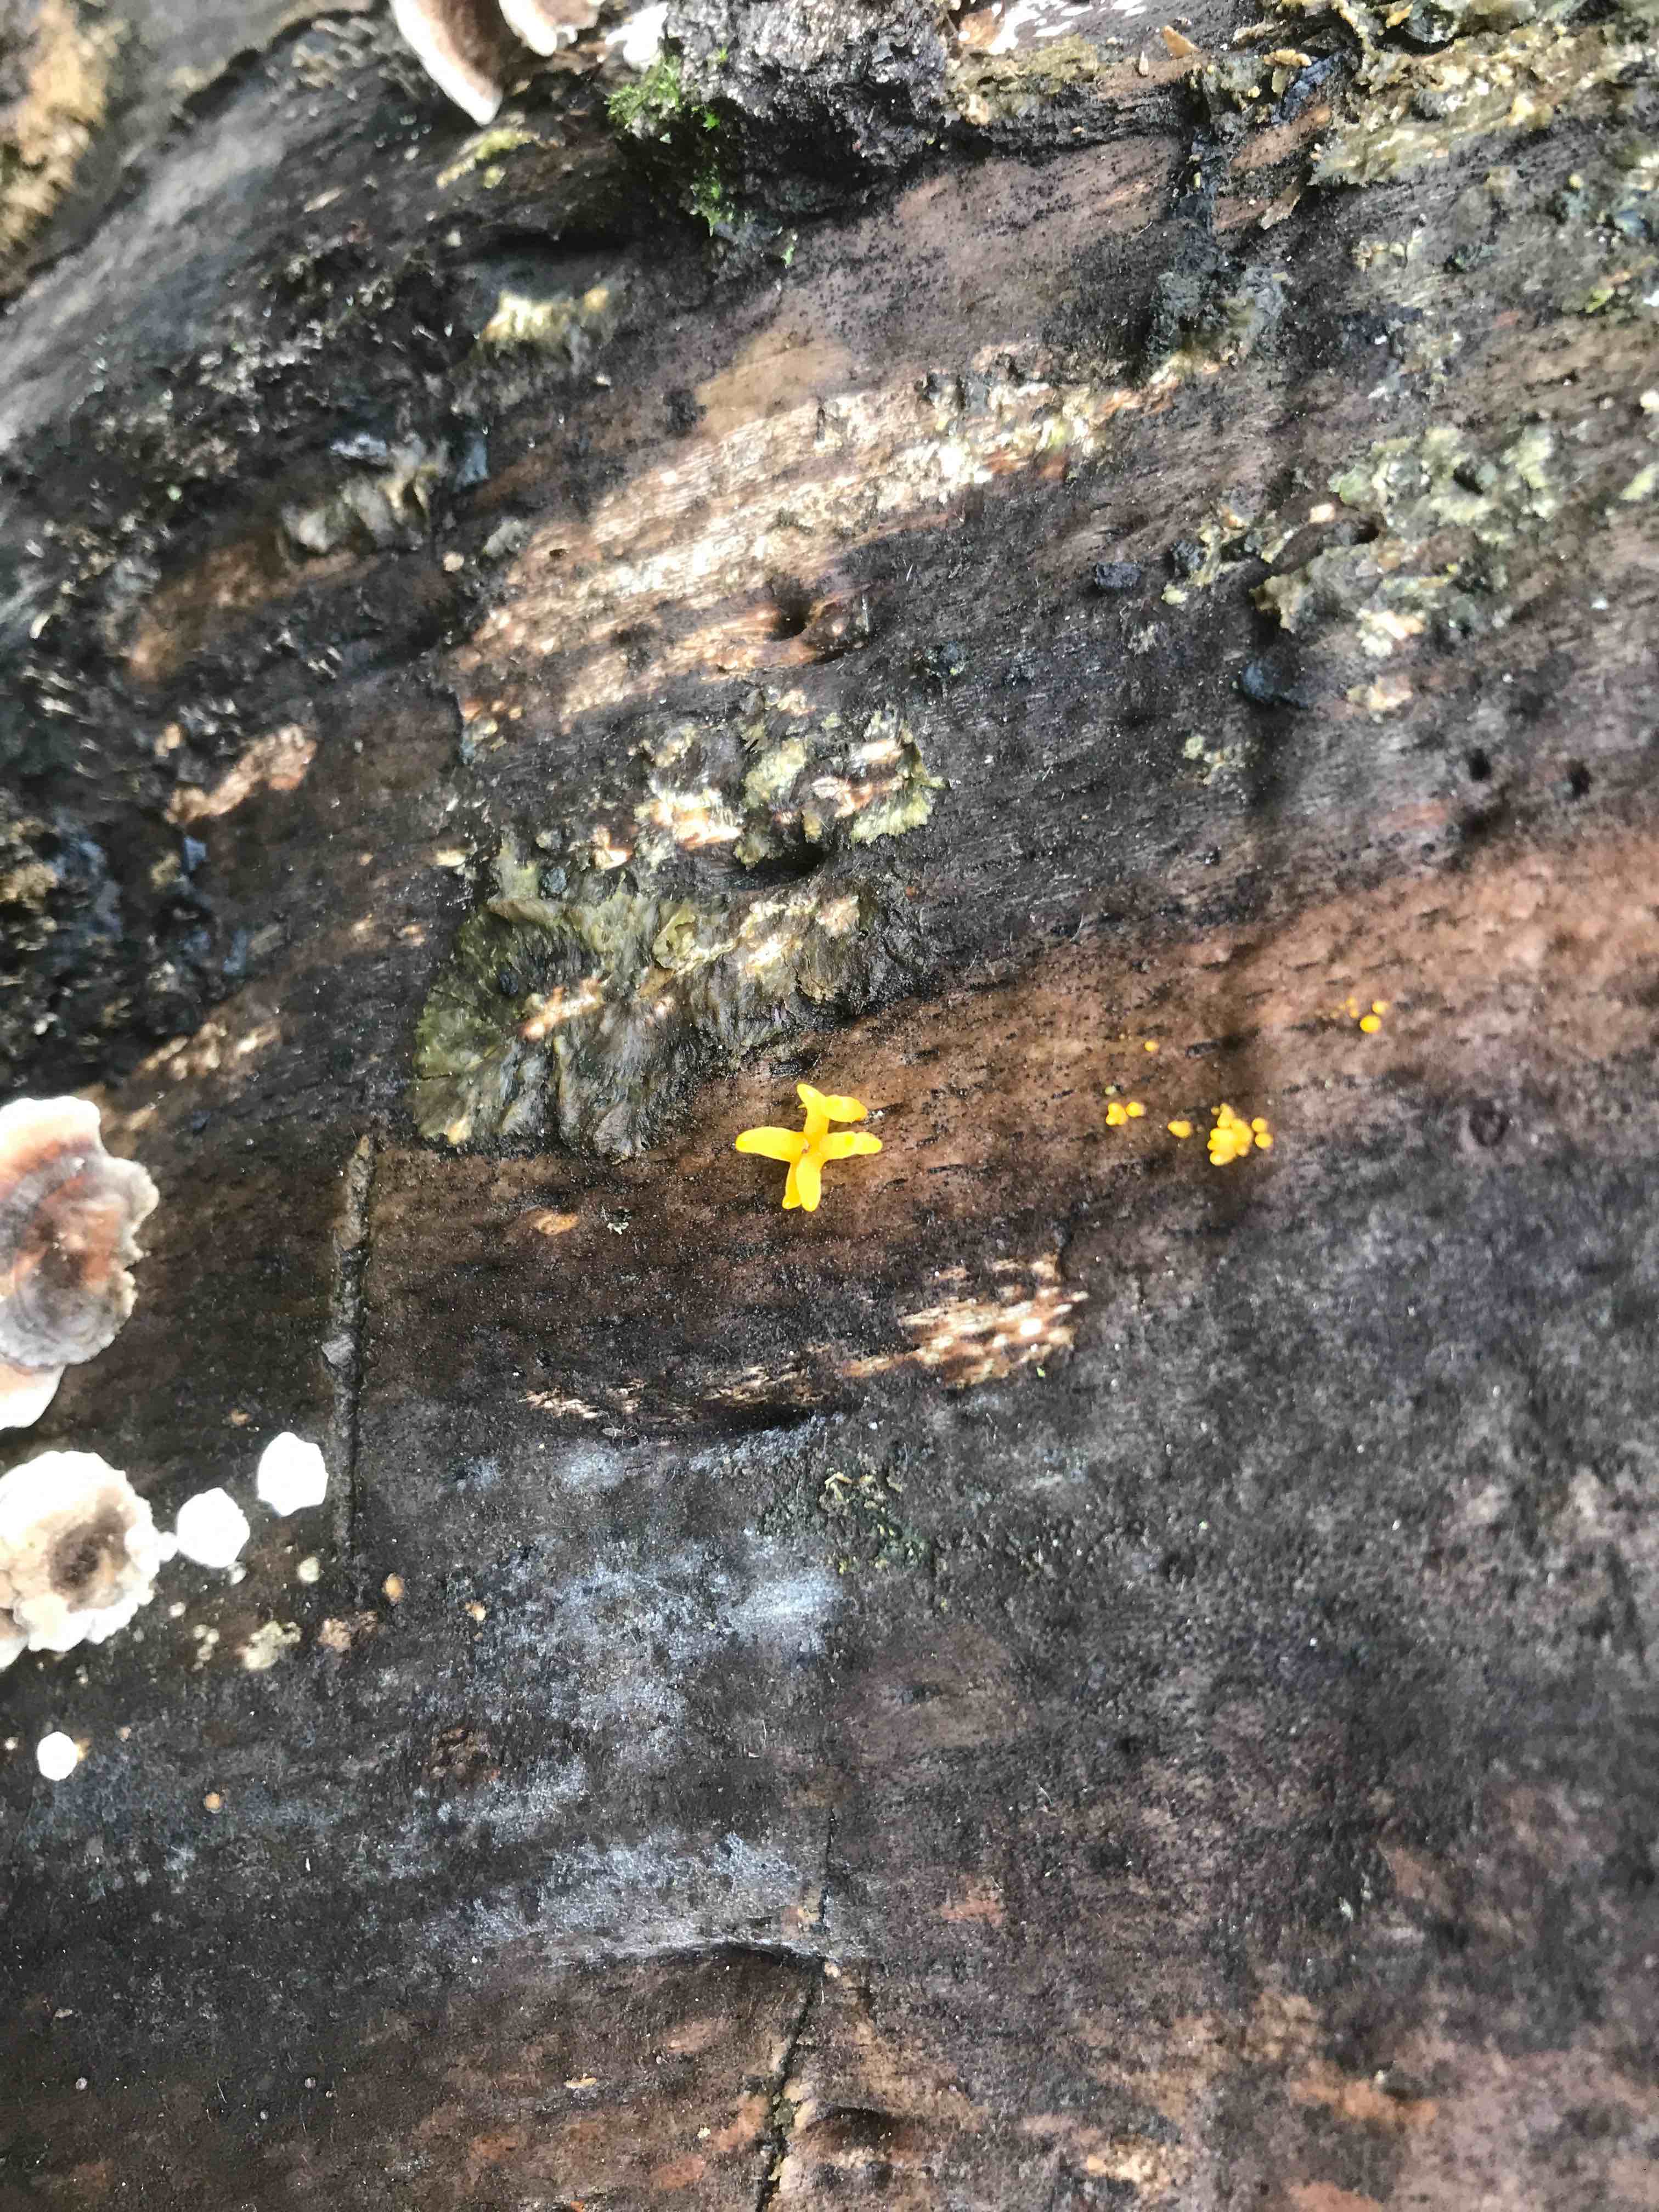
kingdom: Fungi
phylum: Basidiomycota
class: Dacrymycetes
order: Dacrymycetales
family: Dacrymycetaceae
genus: Calocera
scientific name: Calocera cornea
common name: liden guldgaffel
